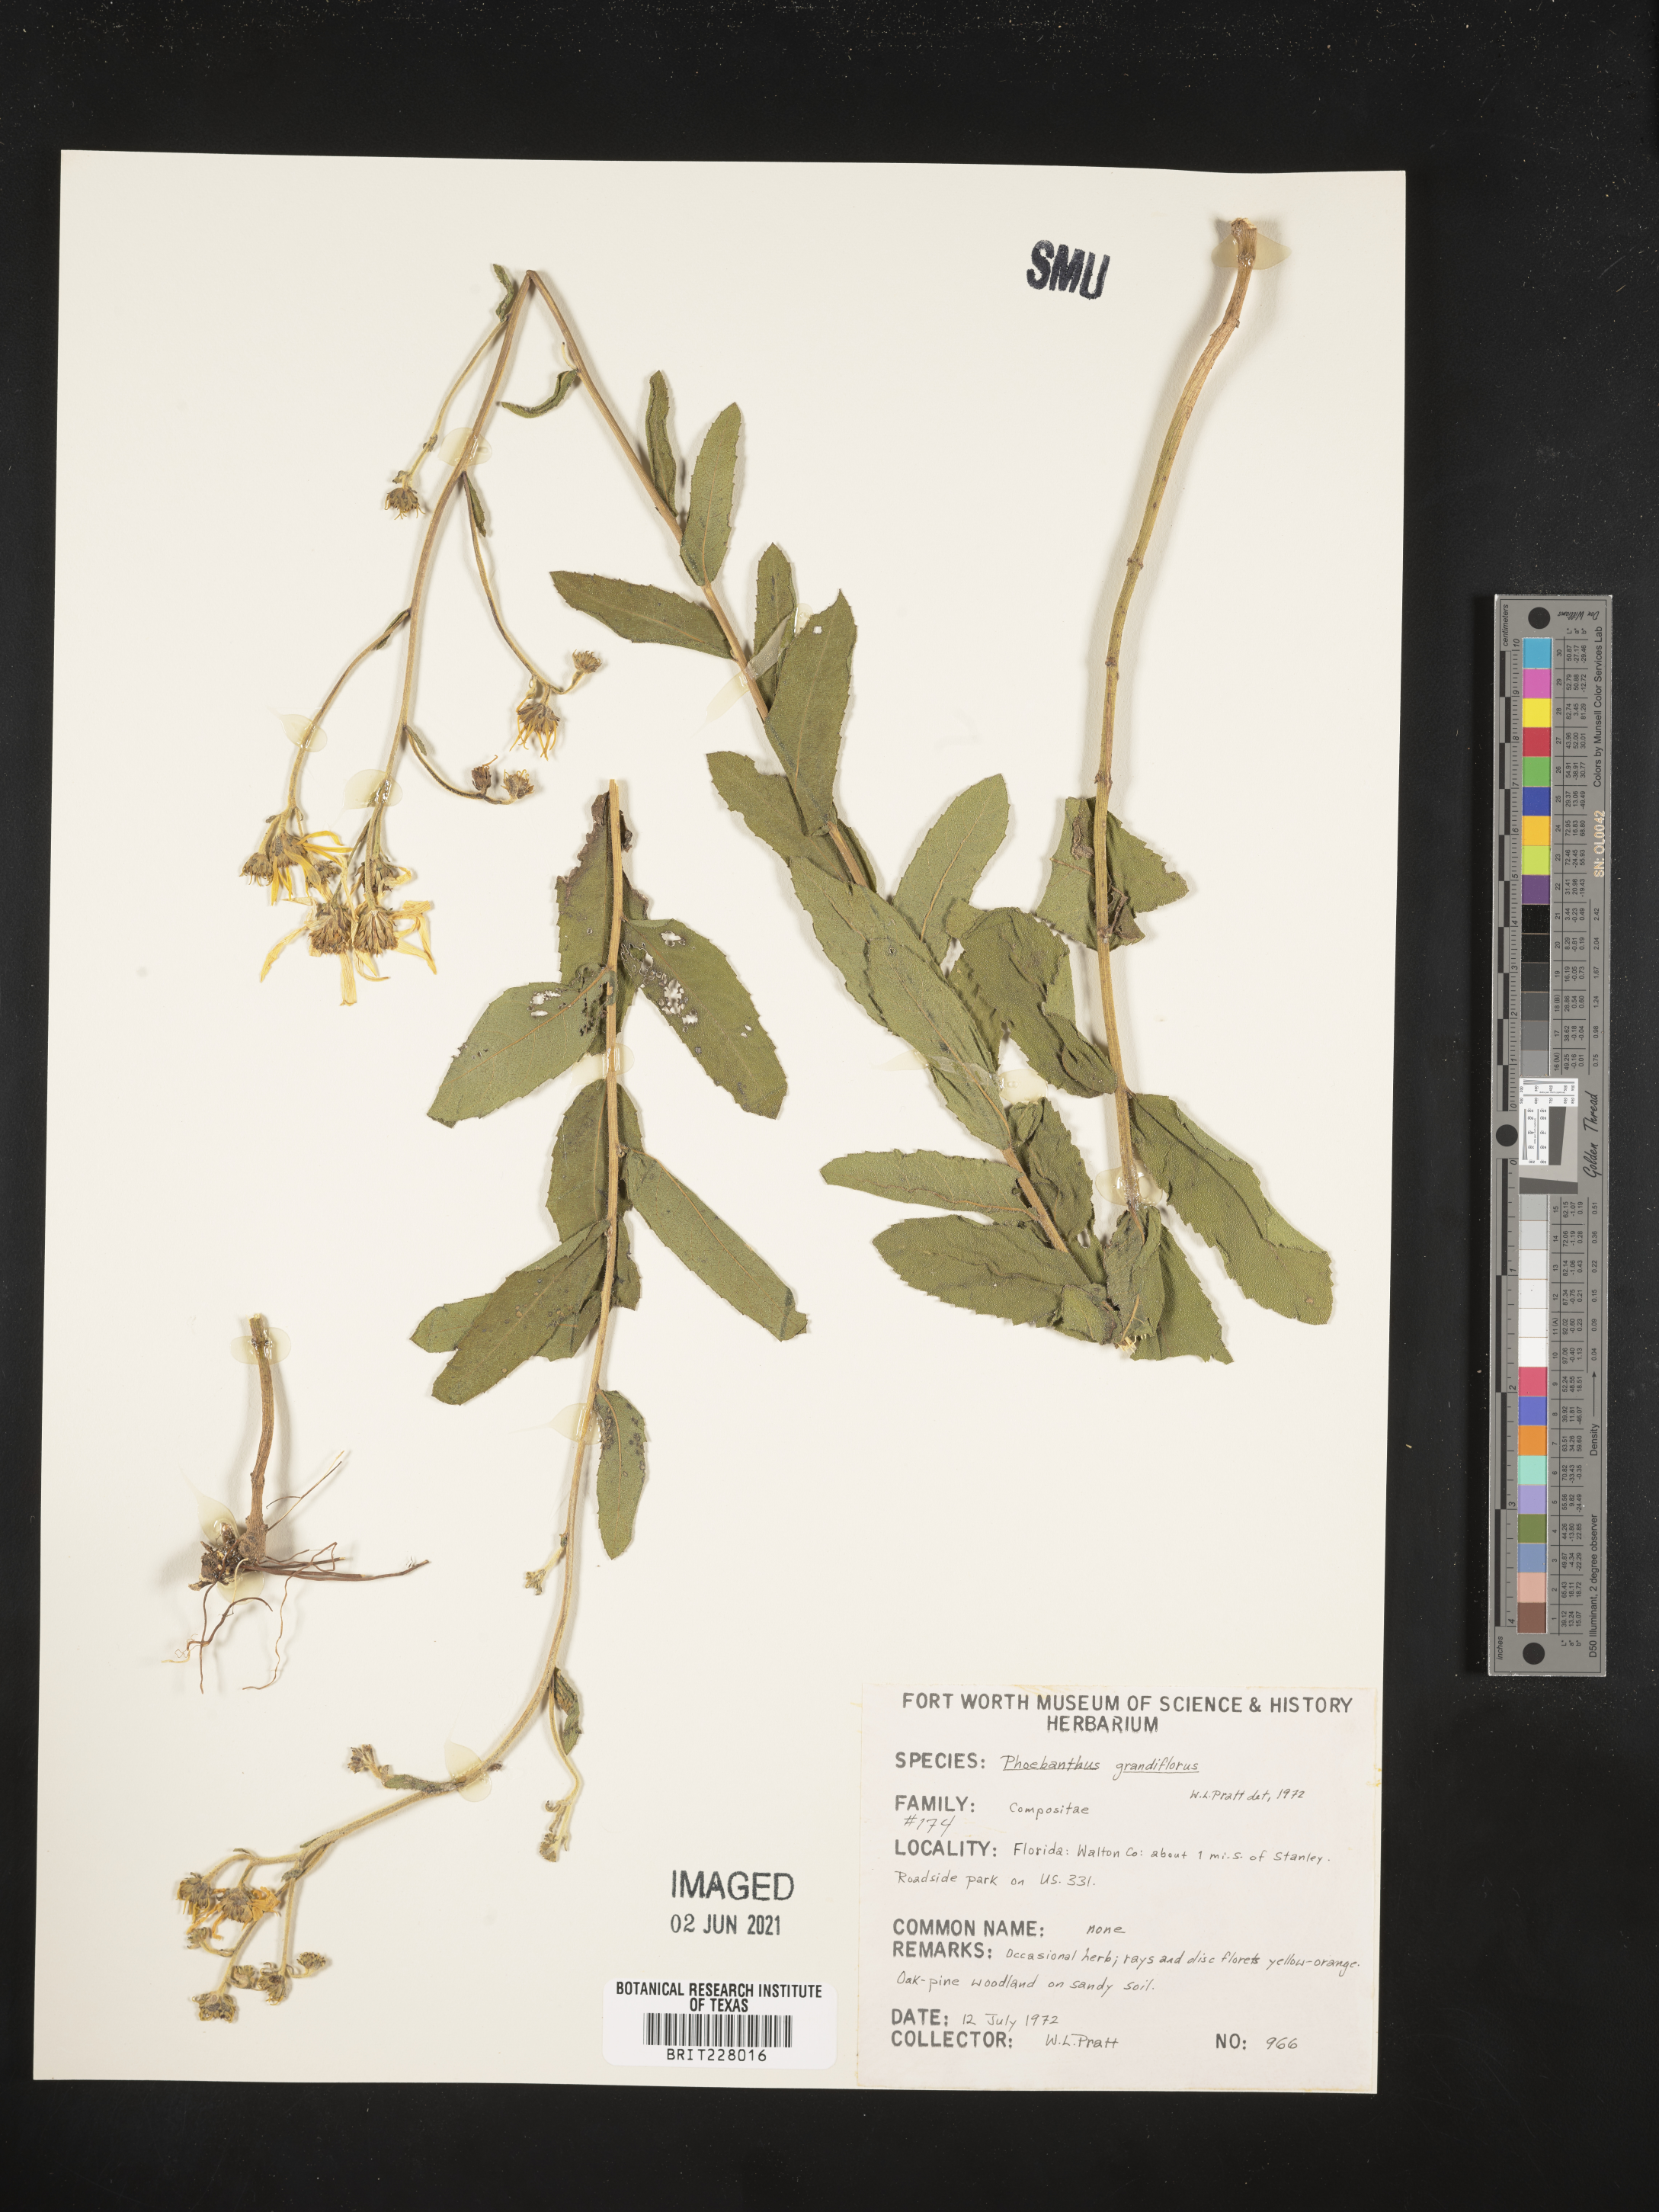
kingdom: Plantae
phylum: Tracheophyta
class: Magnoliopsida
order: Asterales
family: Asteraceae
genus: Phoebanthus
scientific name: Phoebanthus grandiflora
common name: Florida false sunflower
